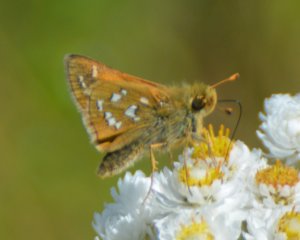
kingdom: Animalia
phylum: Arthropoda
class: Insecta
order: Lepidoptera
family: Hesperiidae
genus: Hesperia
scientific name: Hesperia comma
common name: Common Branded Skipper
